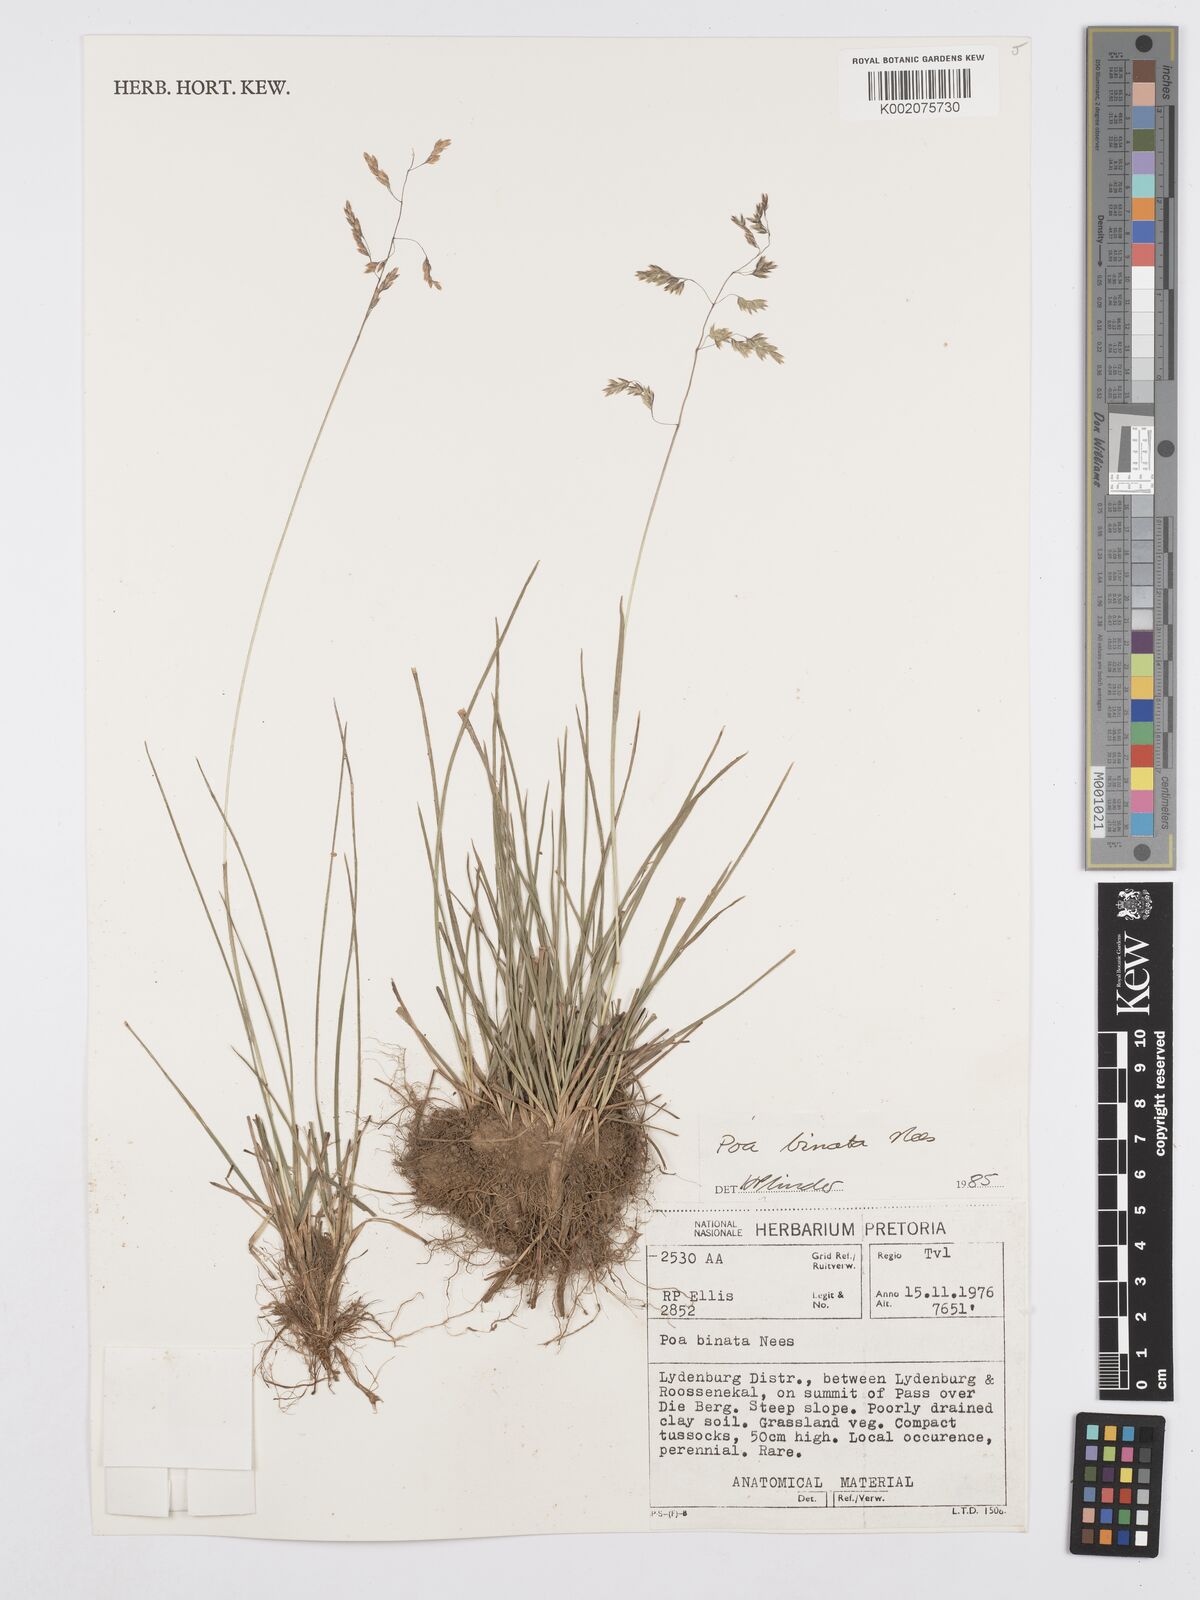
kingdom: Plantae
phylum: Tracheophyta
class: Liliopsida
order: Poales
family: Poaceae
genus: Poa
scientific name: Poa binata
